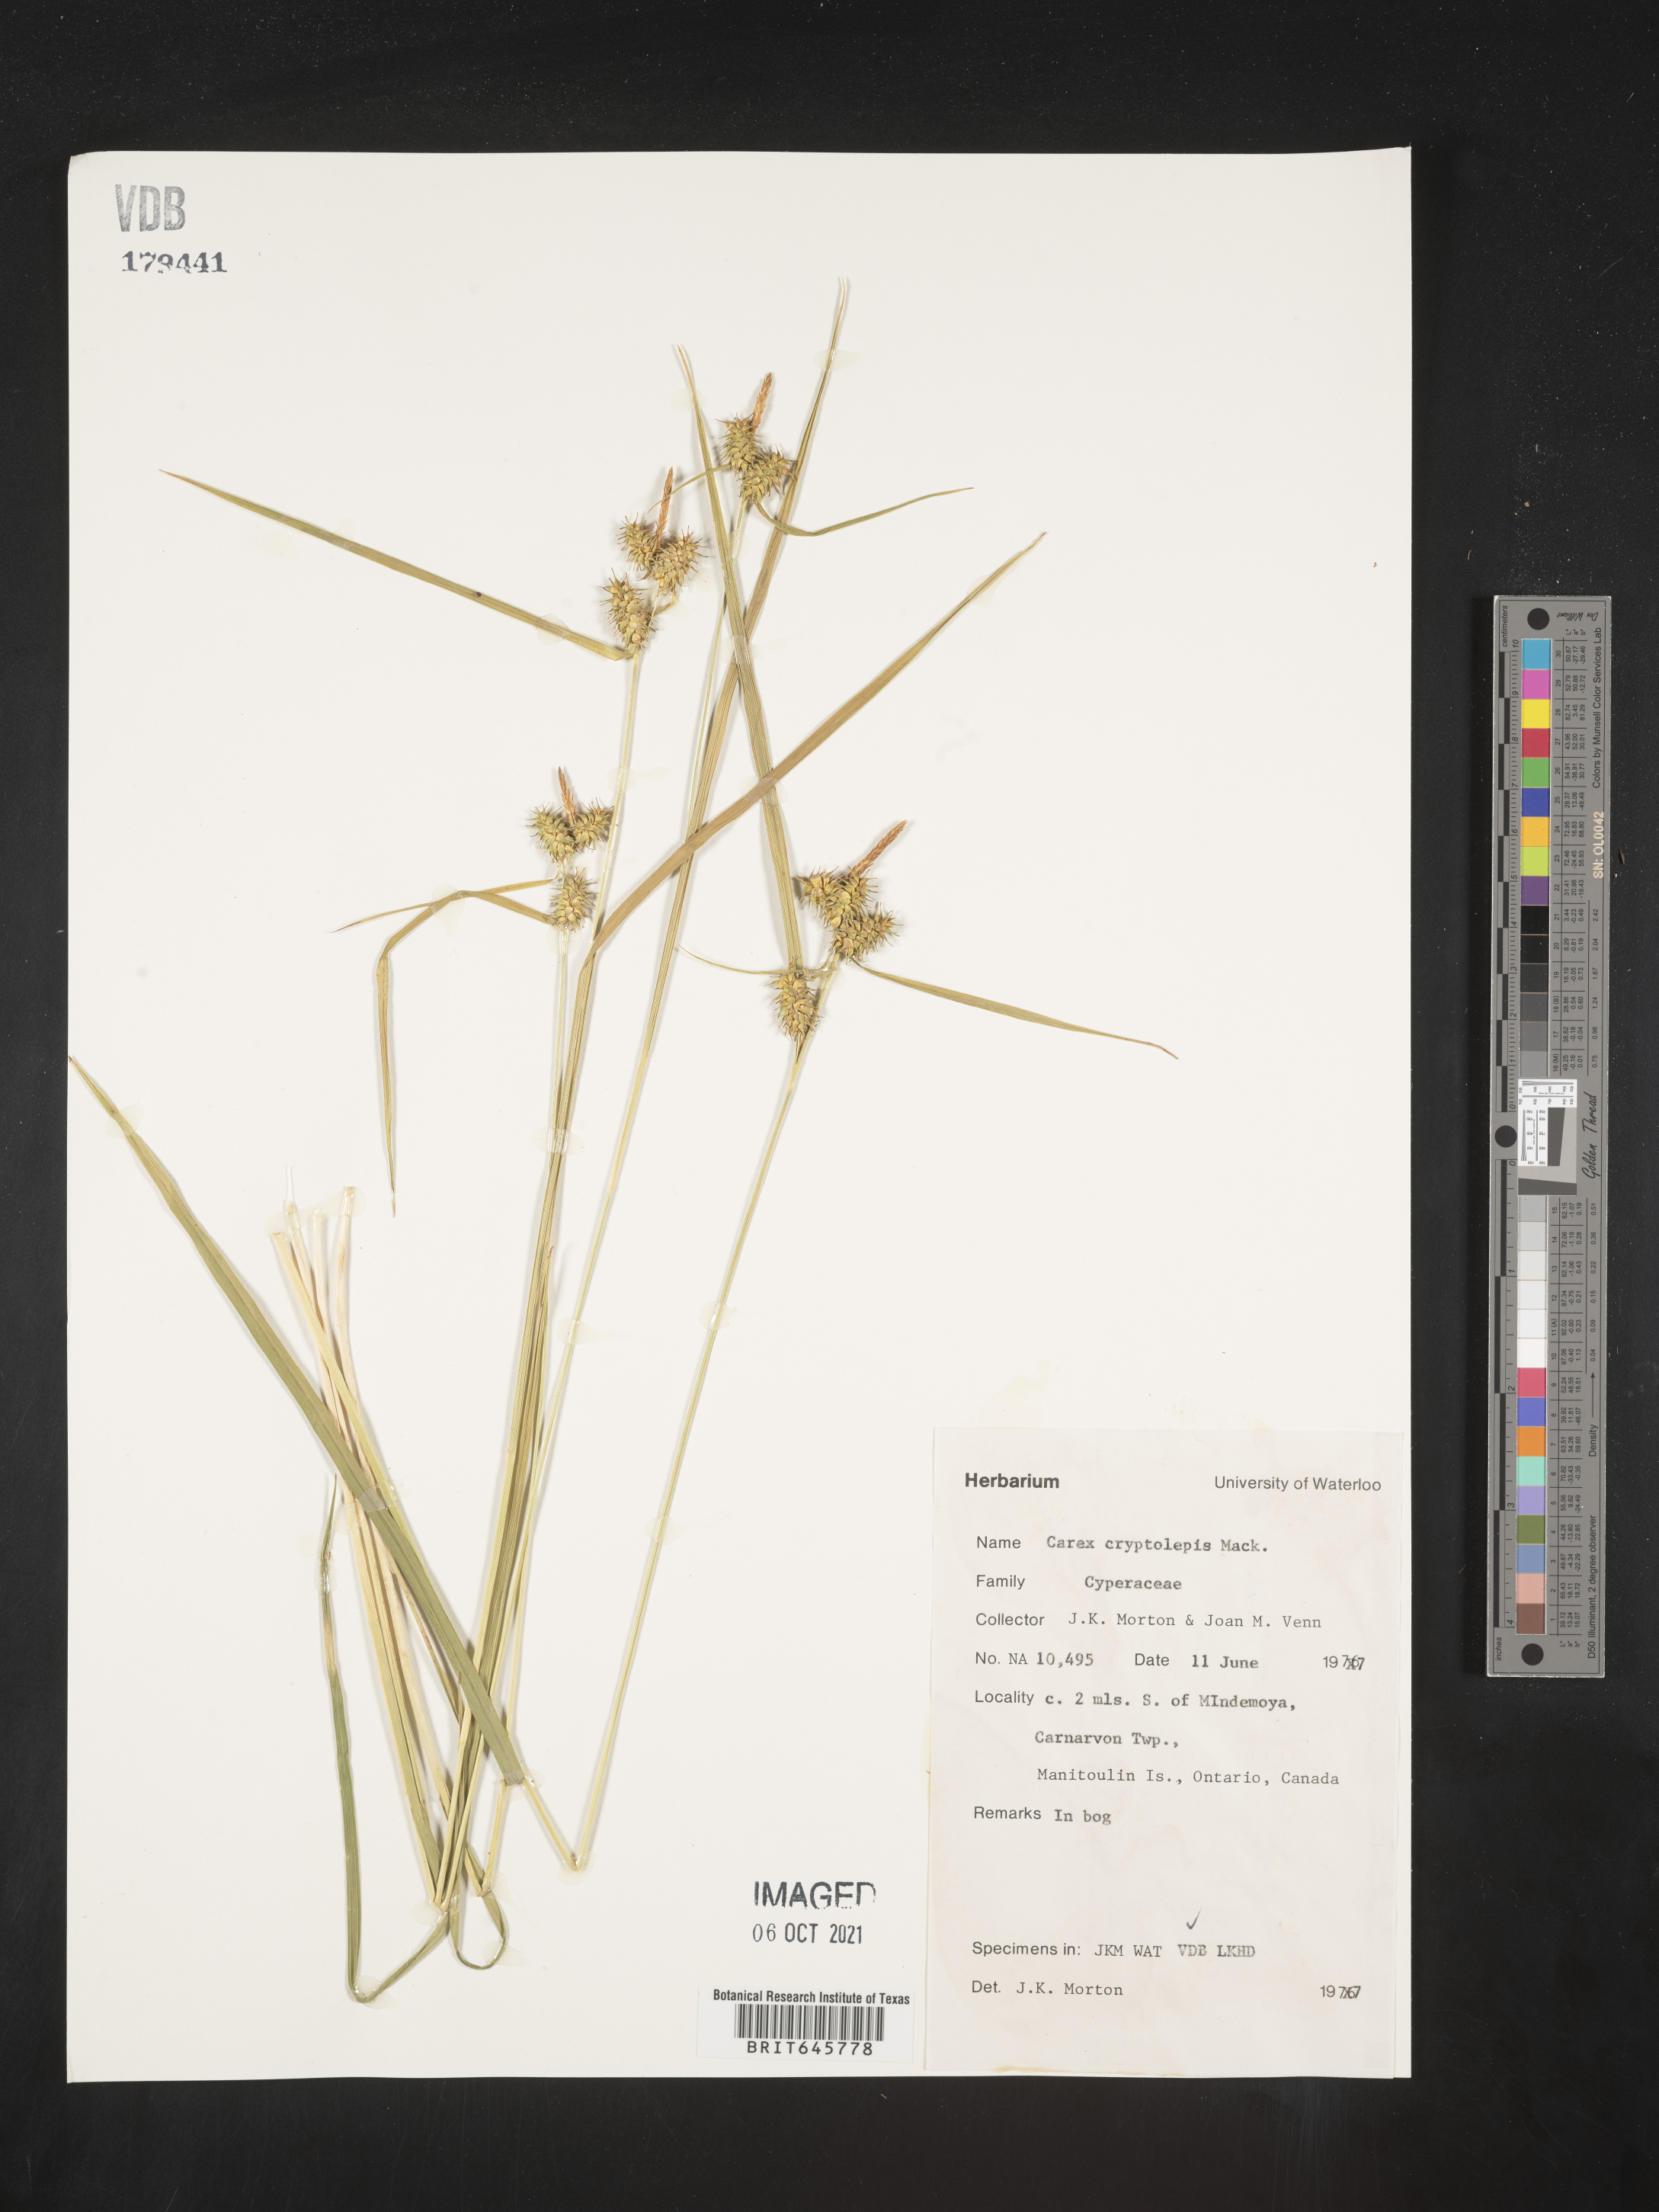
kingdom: Plantae
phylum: Tracheophyta
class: Liliopsida
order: Poales
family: Cyperaceae
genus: Carex
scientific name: Carex cryptolepis
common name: Northeastern sedge
